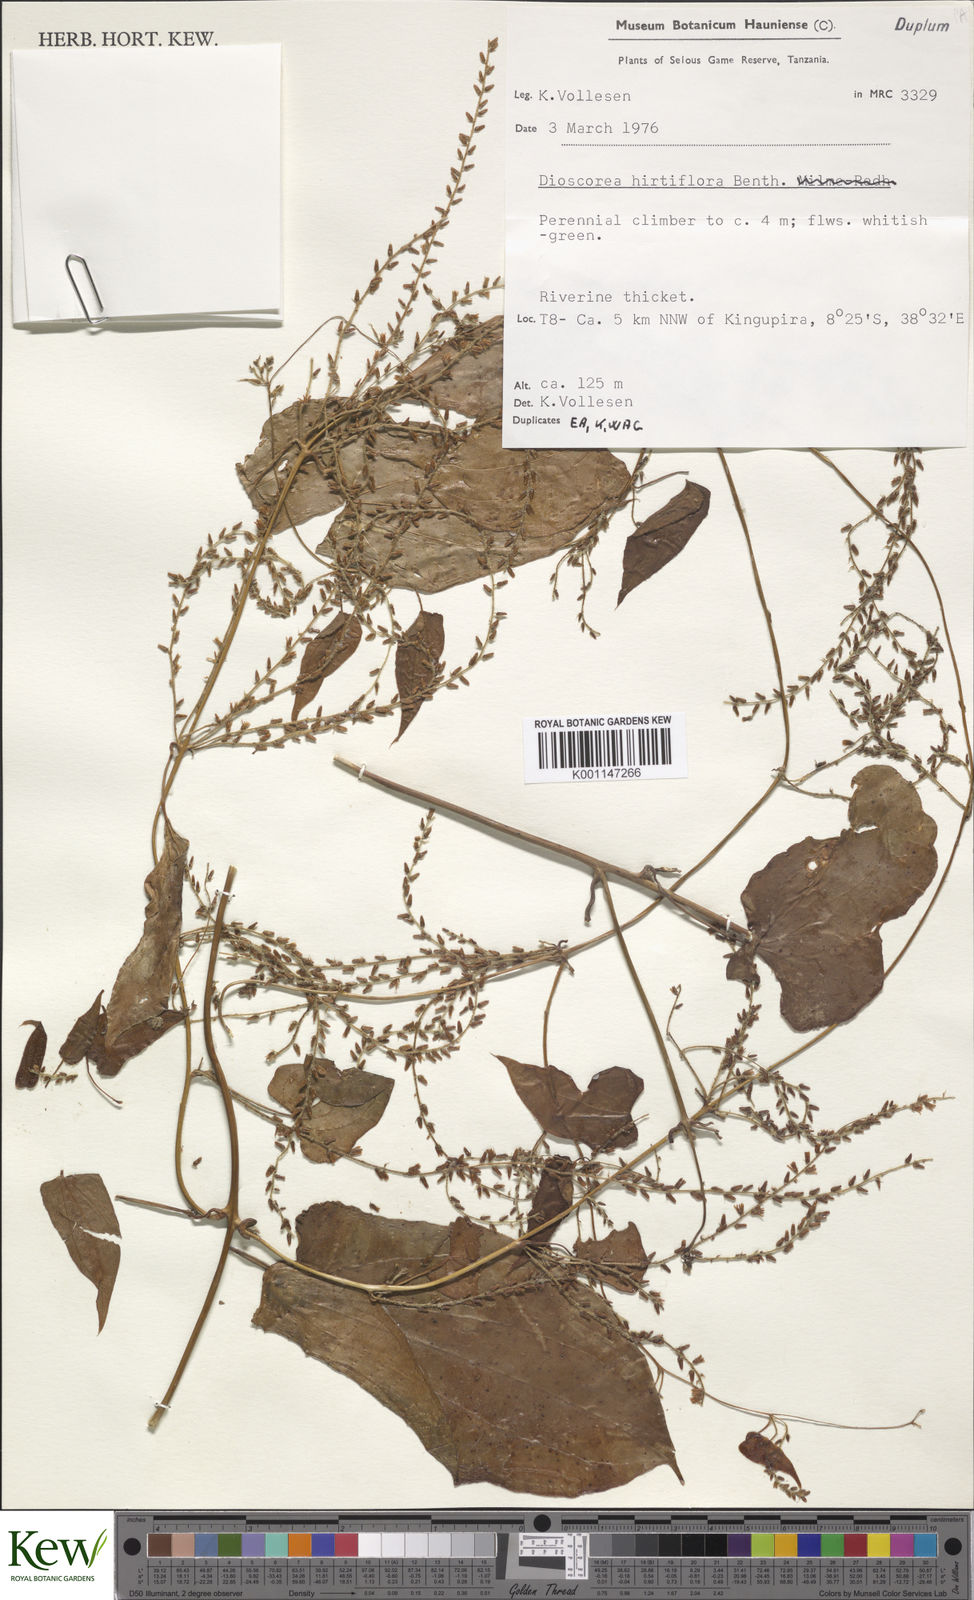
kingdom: Plantae
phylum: Tracheophyta
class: Liliopsida
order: Dioscoreales
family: Dioscoreaceae
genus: Dioscorea
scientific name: Dioscorea hirtiflora
